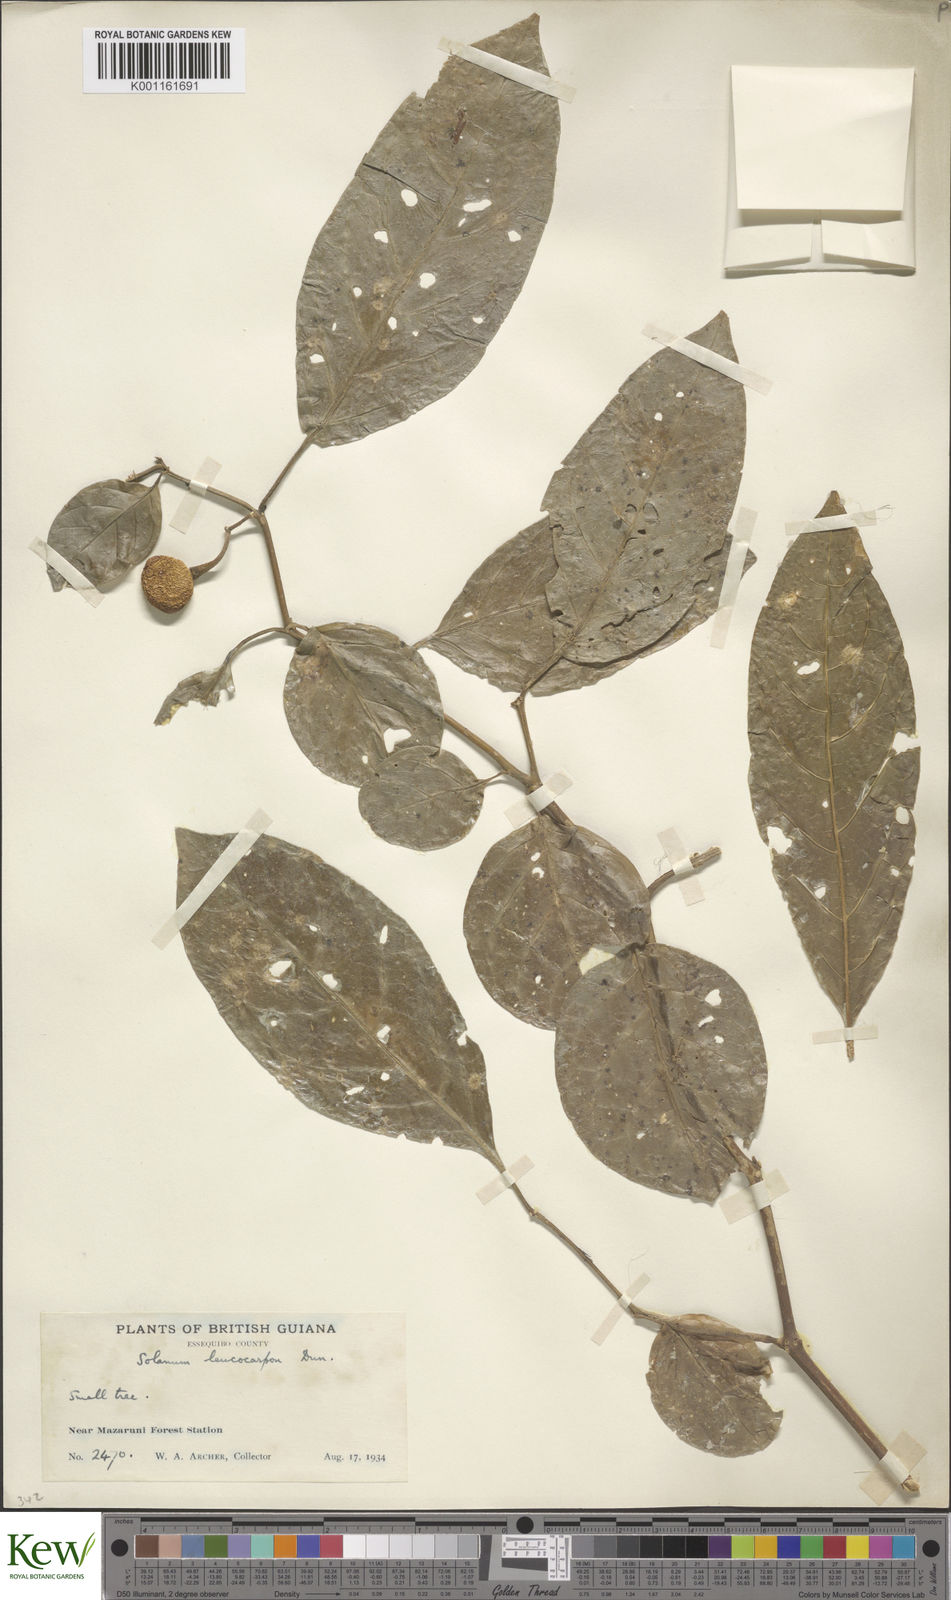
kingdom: Plantae
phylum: Tracheophyta
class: Magnoliopsida
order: Solanales
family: Solanaceae
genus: Solanum
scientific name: Solanum leucocarpon
